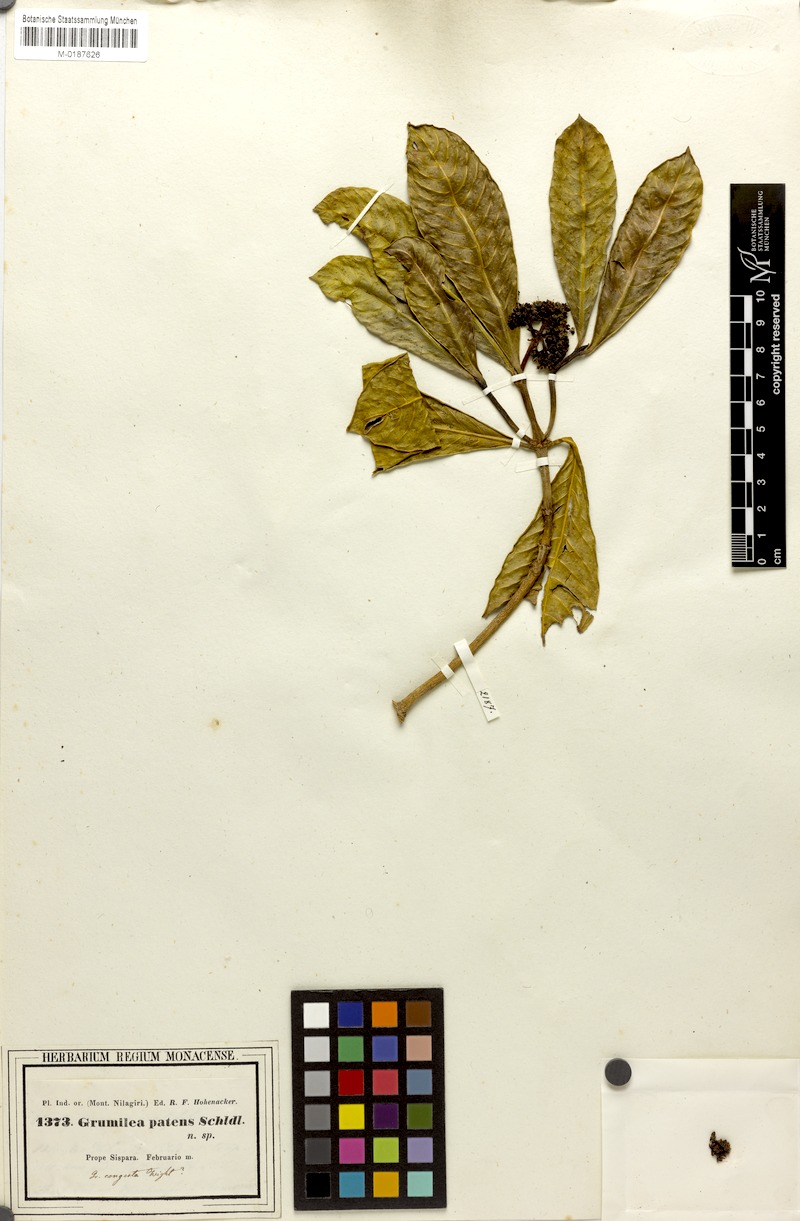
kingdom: Plantae
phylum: Tracheophyta
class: Magnoliopsida
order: Gentianales
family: Rubiaceae
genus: Psychotria
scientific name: Psychotria nilgiriensis
